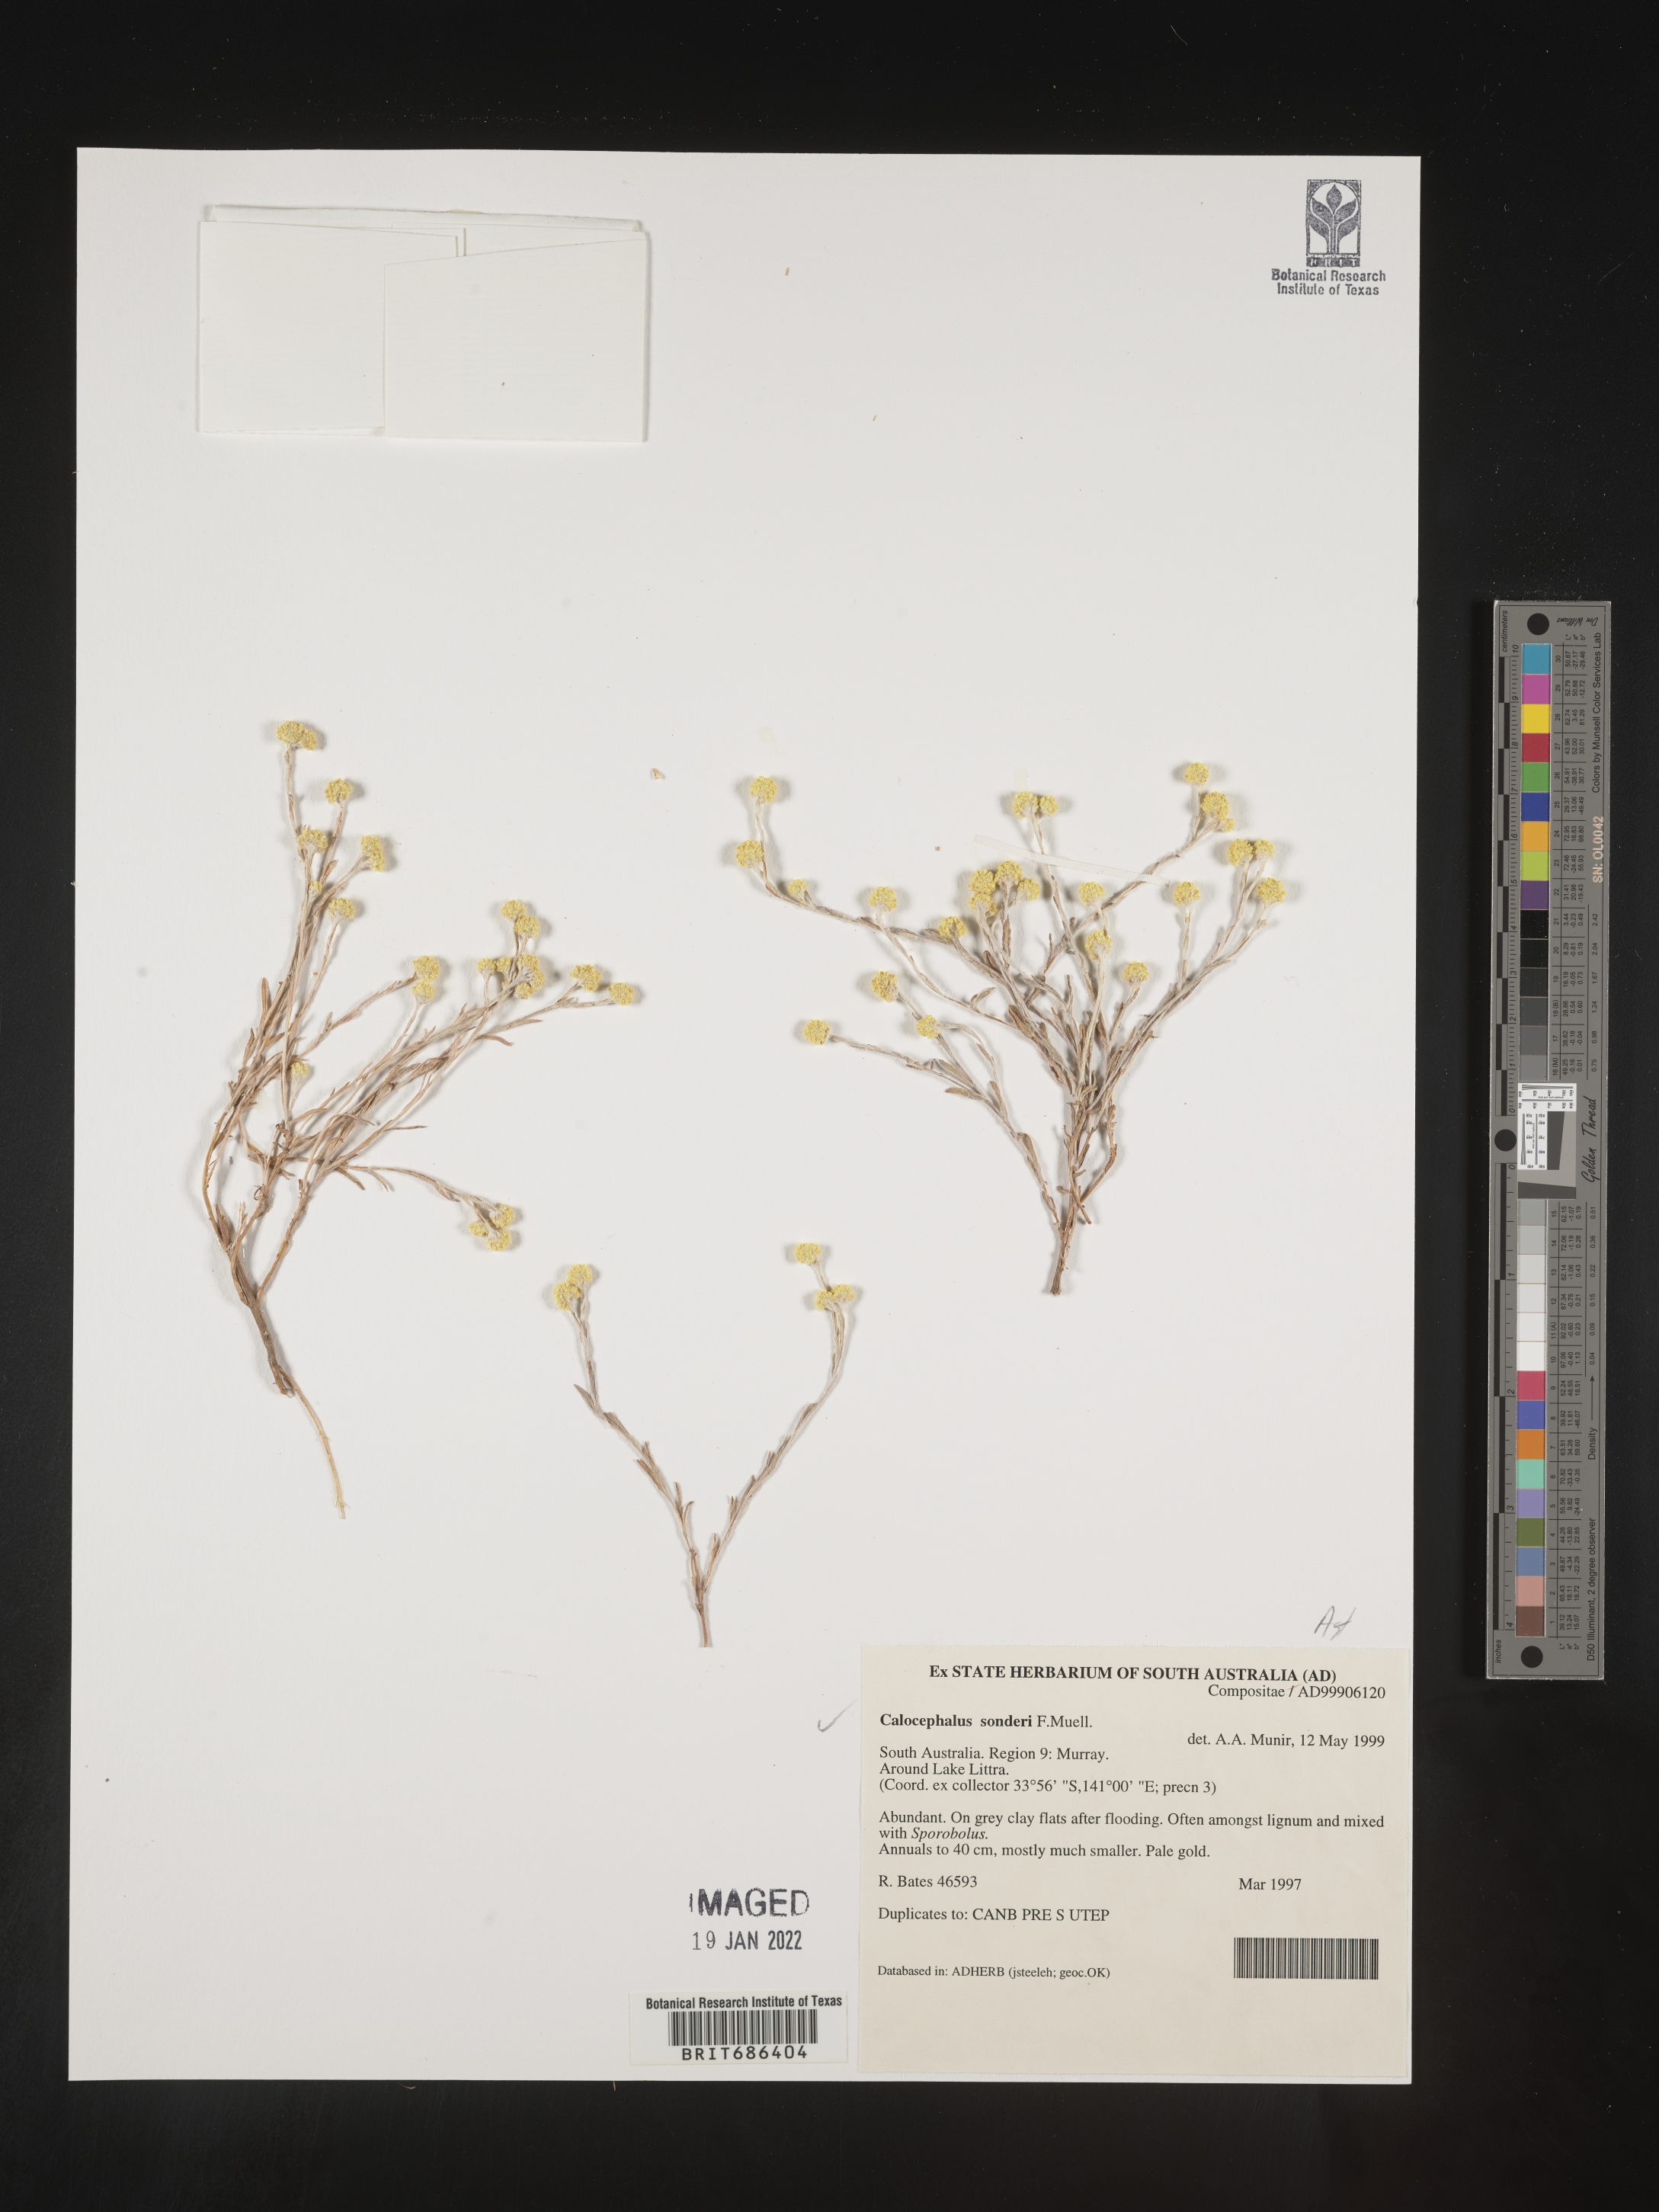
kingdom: Plantae
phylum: Tracheophyta
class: Magnoliopsida
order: Asterales
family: Asteraceae
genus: Calocephalus
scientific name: Calocephalus
